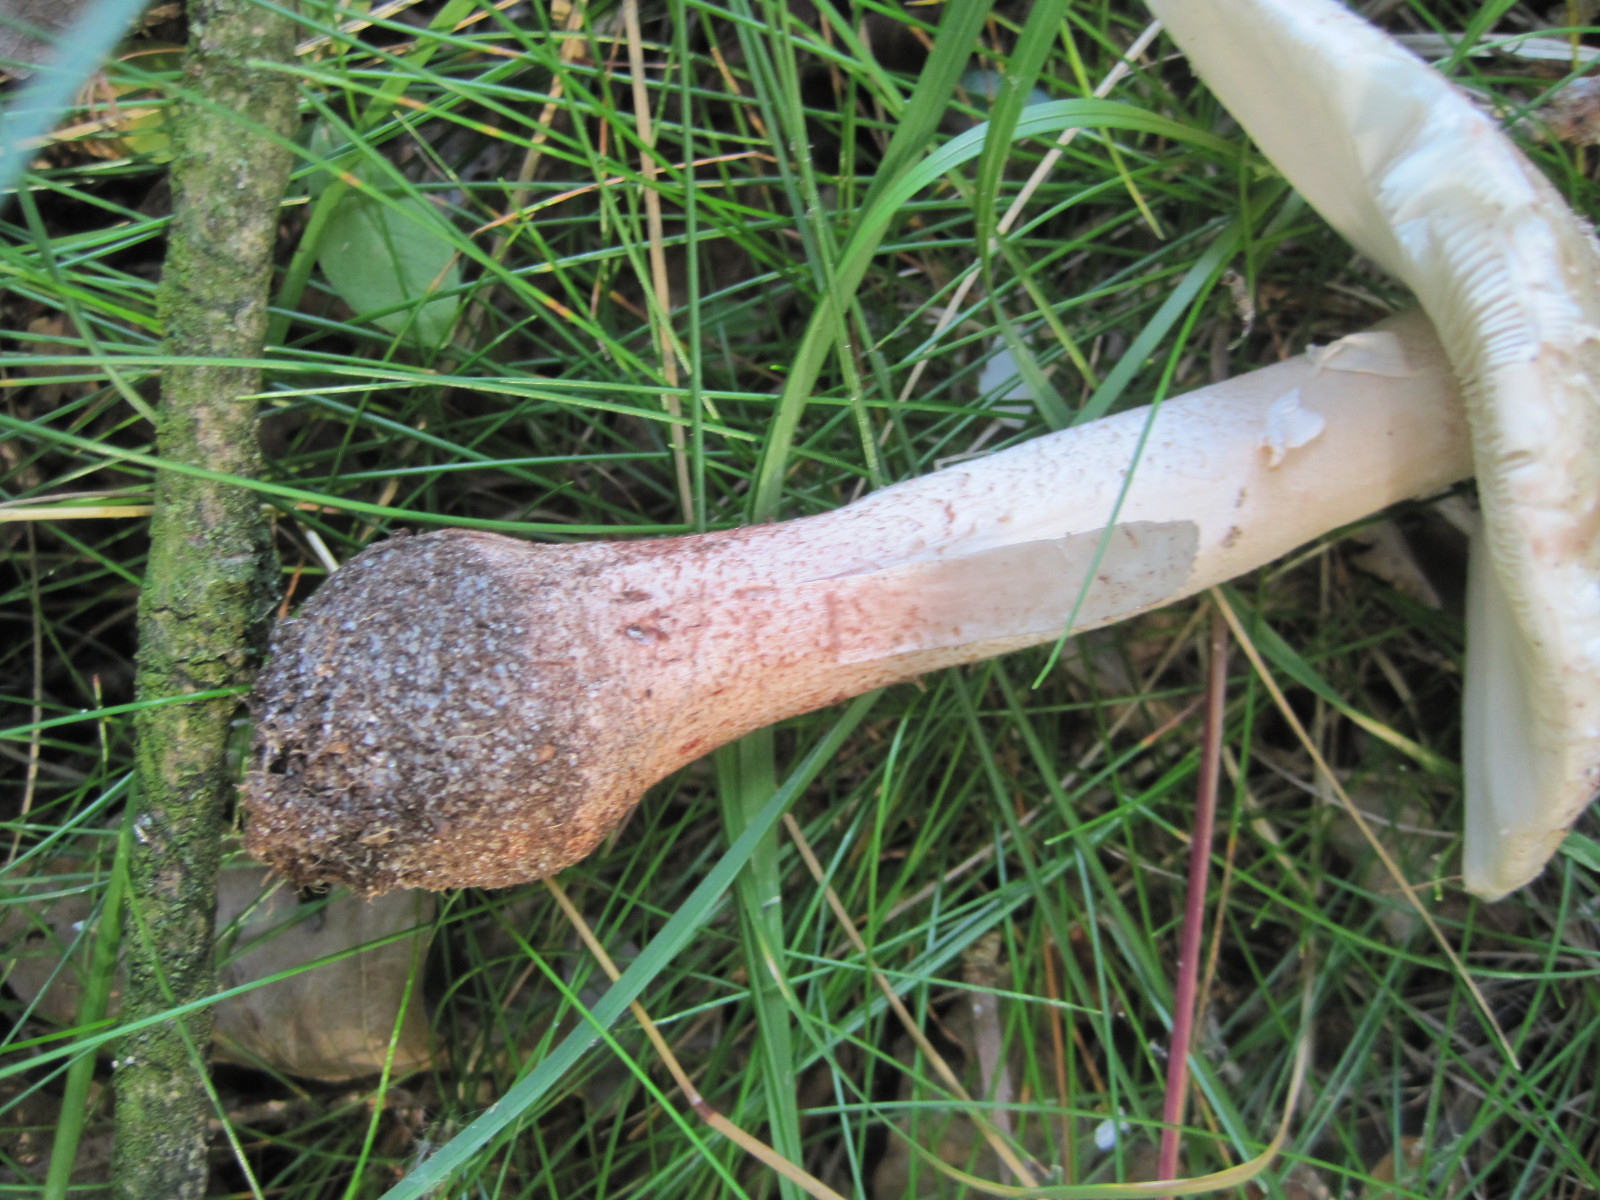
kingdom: Fungi
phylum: Basidiomycota
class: Agaricomycetes
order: Agaricales
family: Amanitaceae
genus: Amanita
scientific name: Amanita rubescens
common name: rødmende fluesvamp
